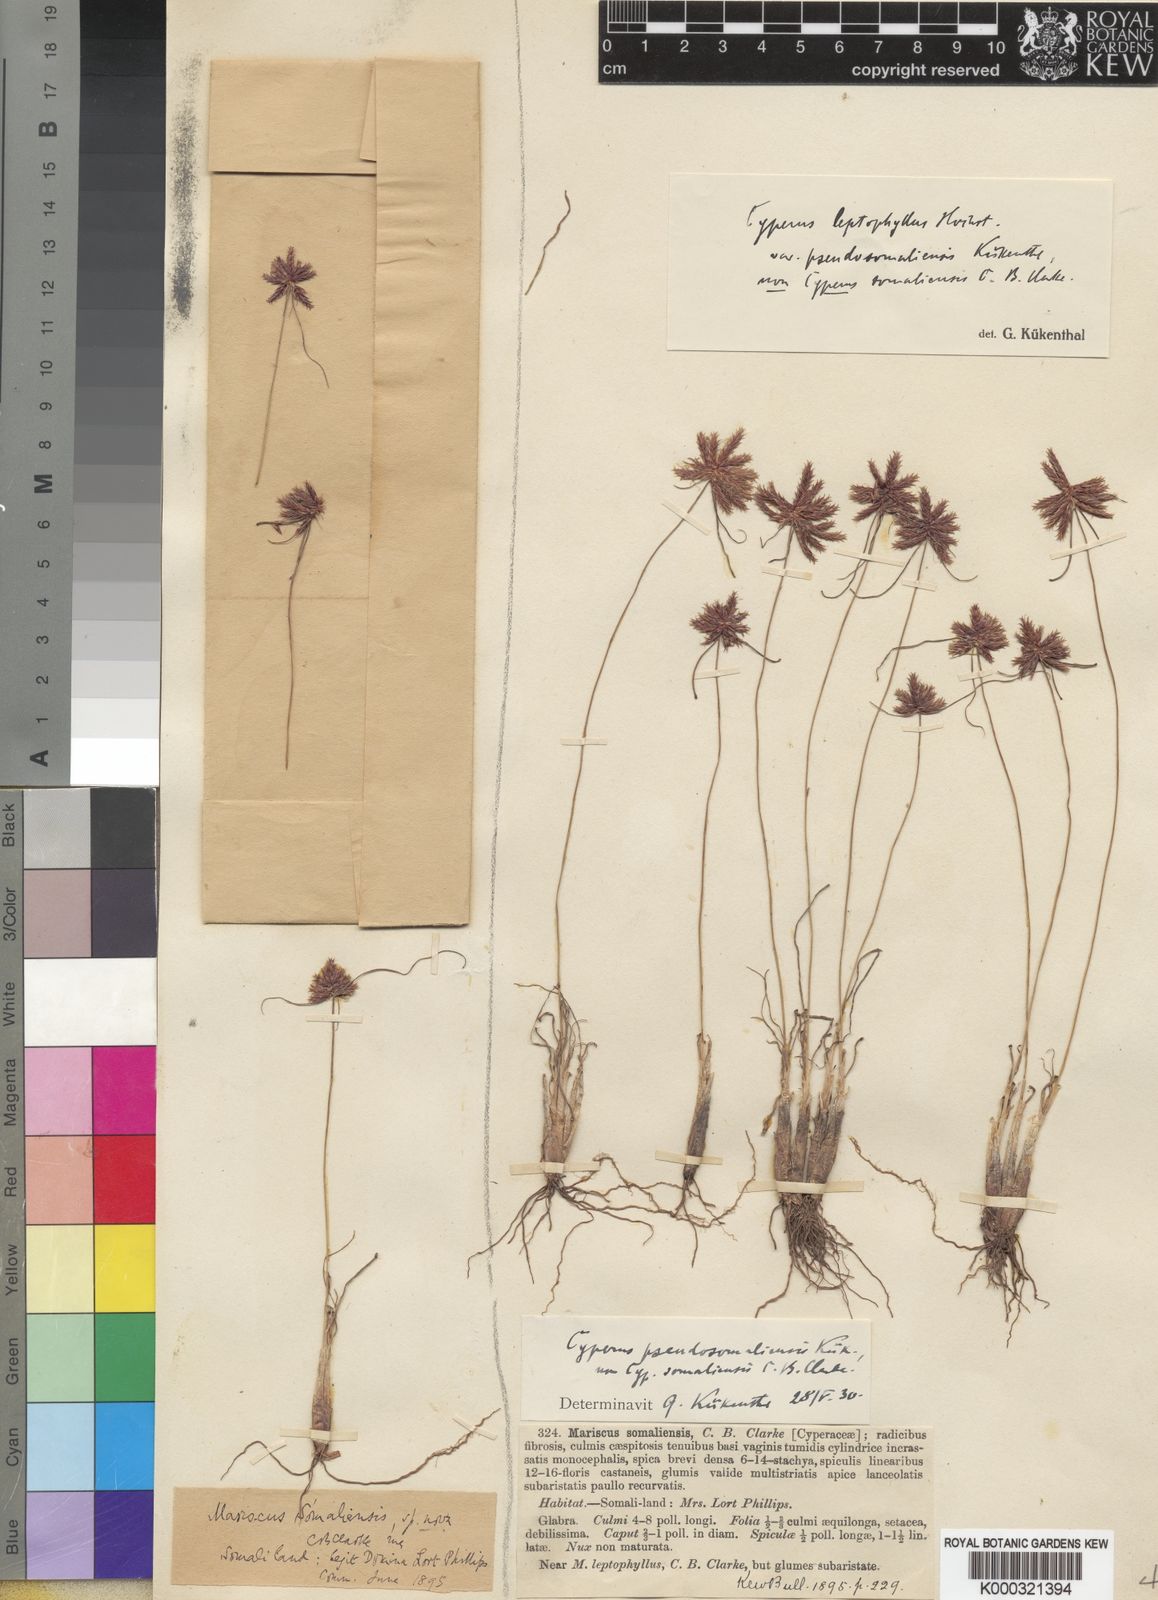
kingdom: Plantae
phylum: Tracheophyta
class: Liliopsida
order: Poales
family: Cyperaceae
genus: Cyperus
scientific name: Cyperus
